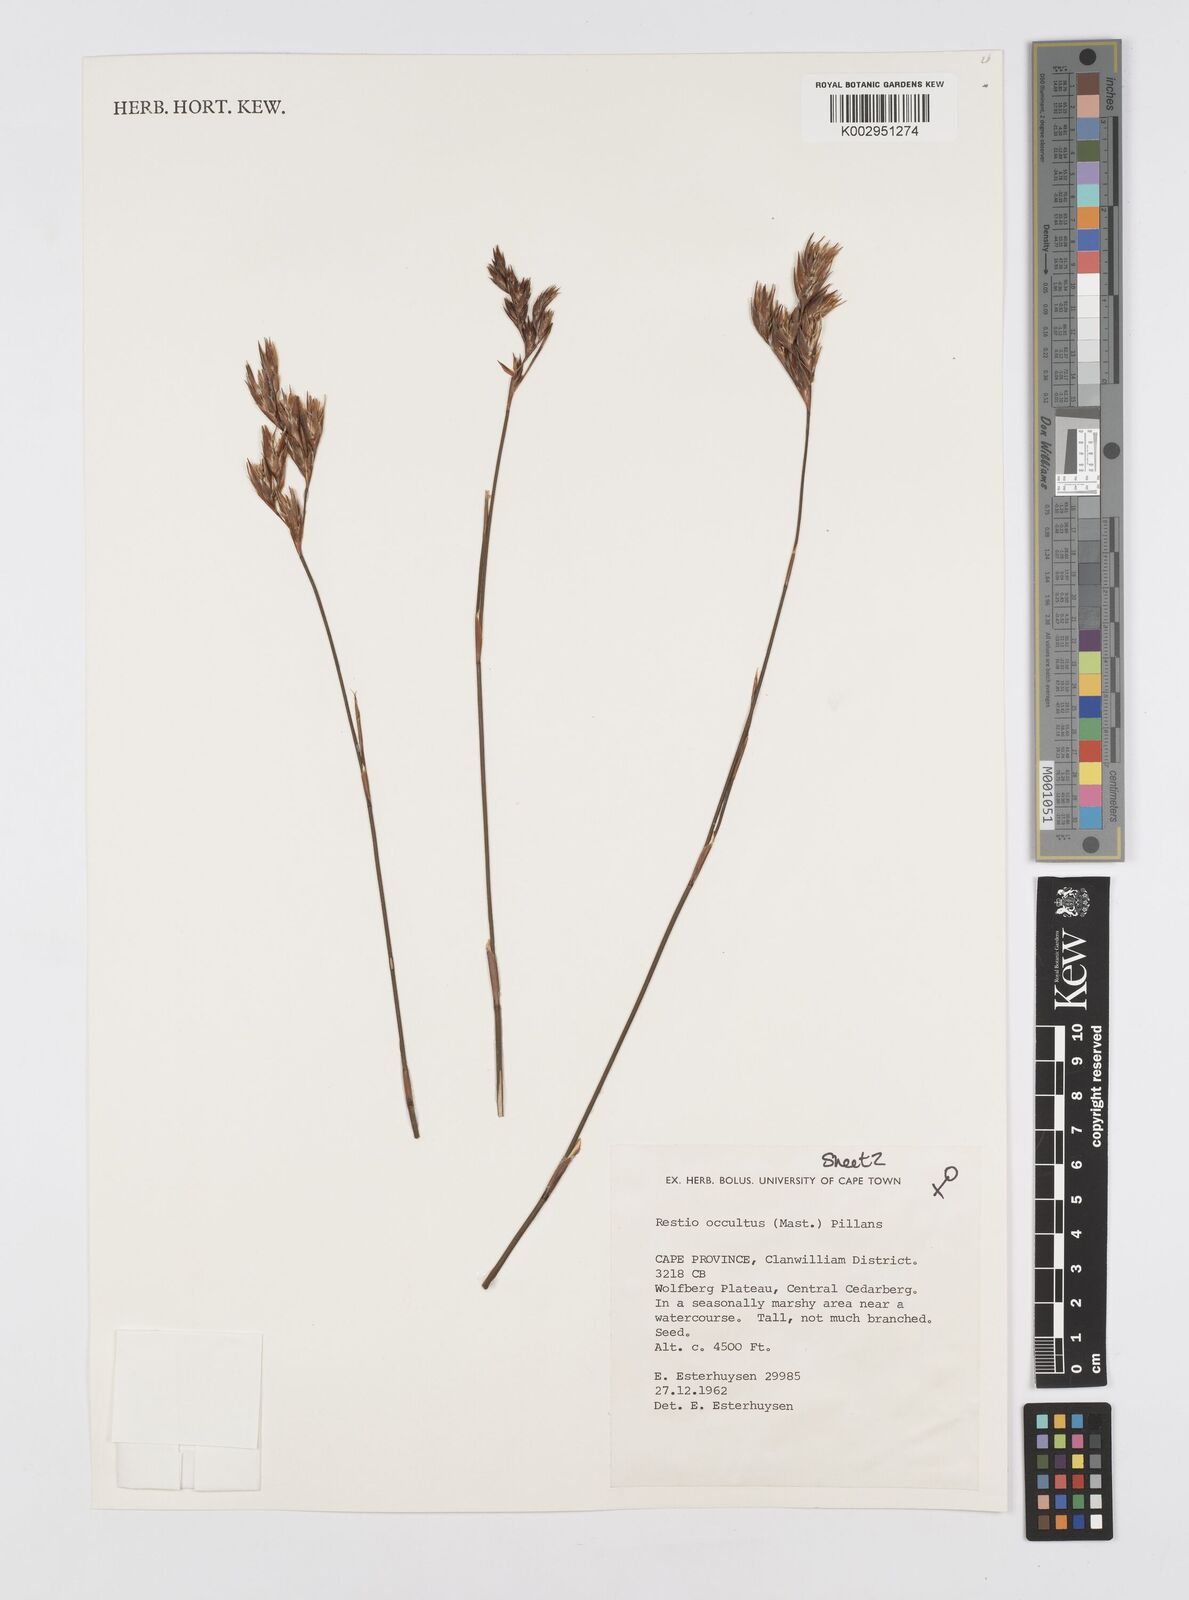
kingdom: Plantae
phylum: Tracheophyta
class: Liliopsida
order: Poales
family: Restionaceae
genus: Restio
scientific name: Restio occultus
